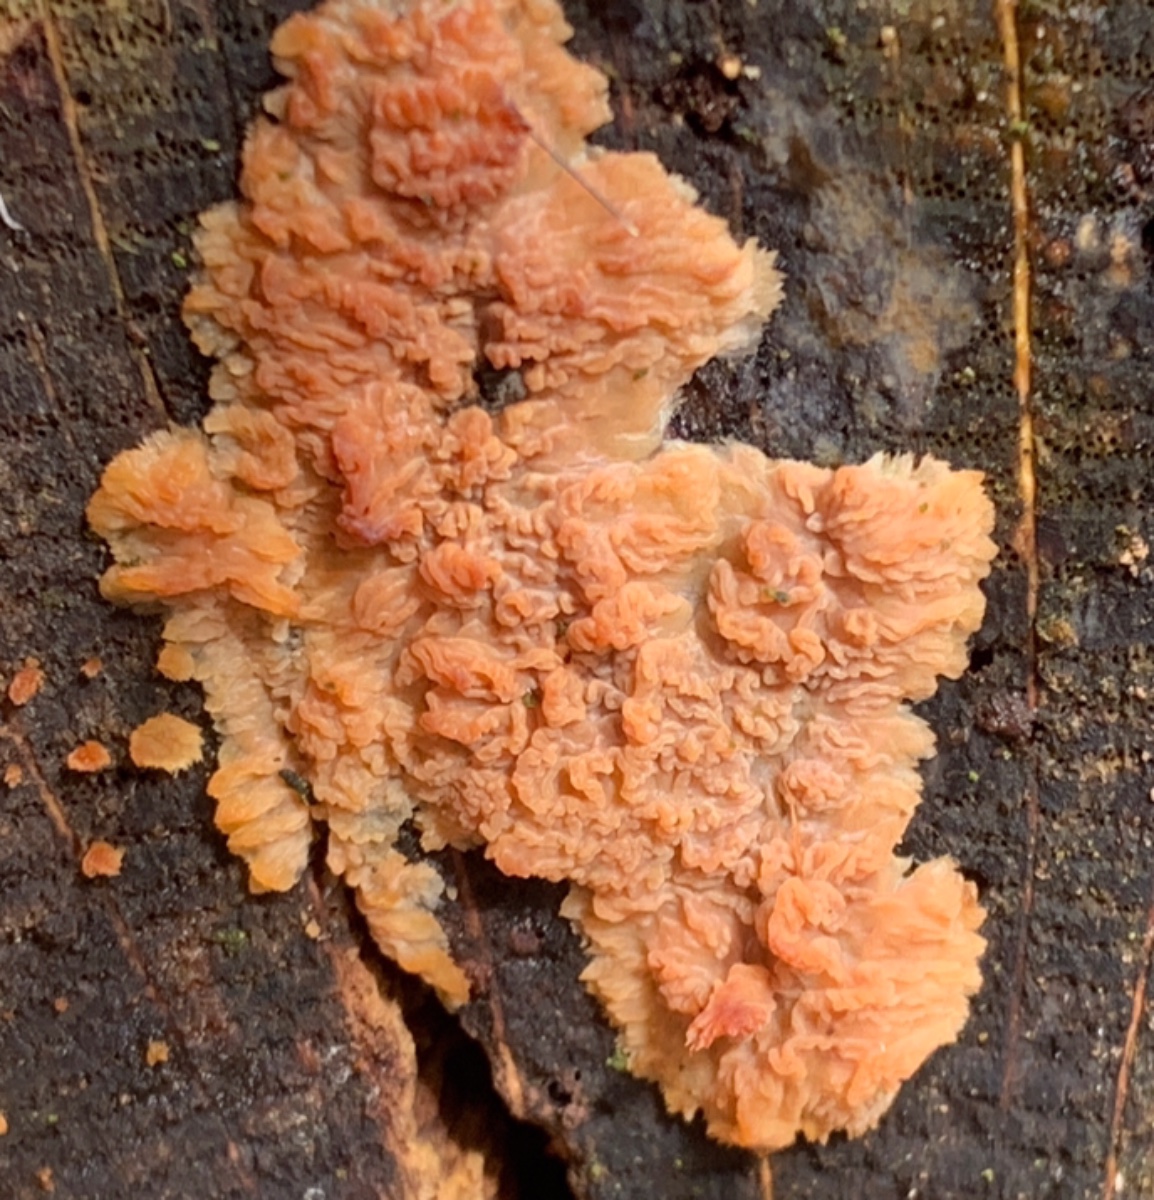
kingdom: Fungi
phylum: Basidiomycota
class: Agaricomycetes
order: Polyporales
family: Meruliaceae
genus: Phlebia
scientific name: Phlebia radiata
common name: stråle-åresvamp
